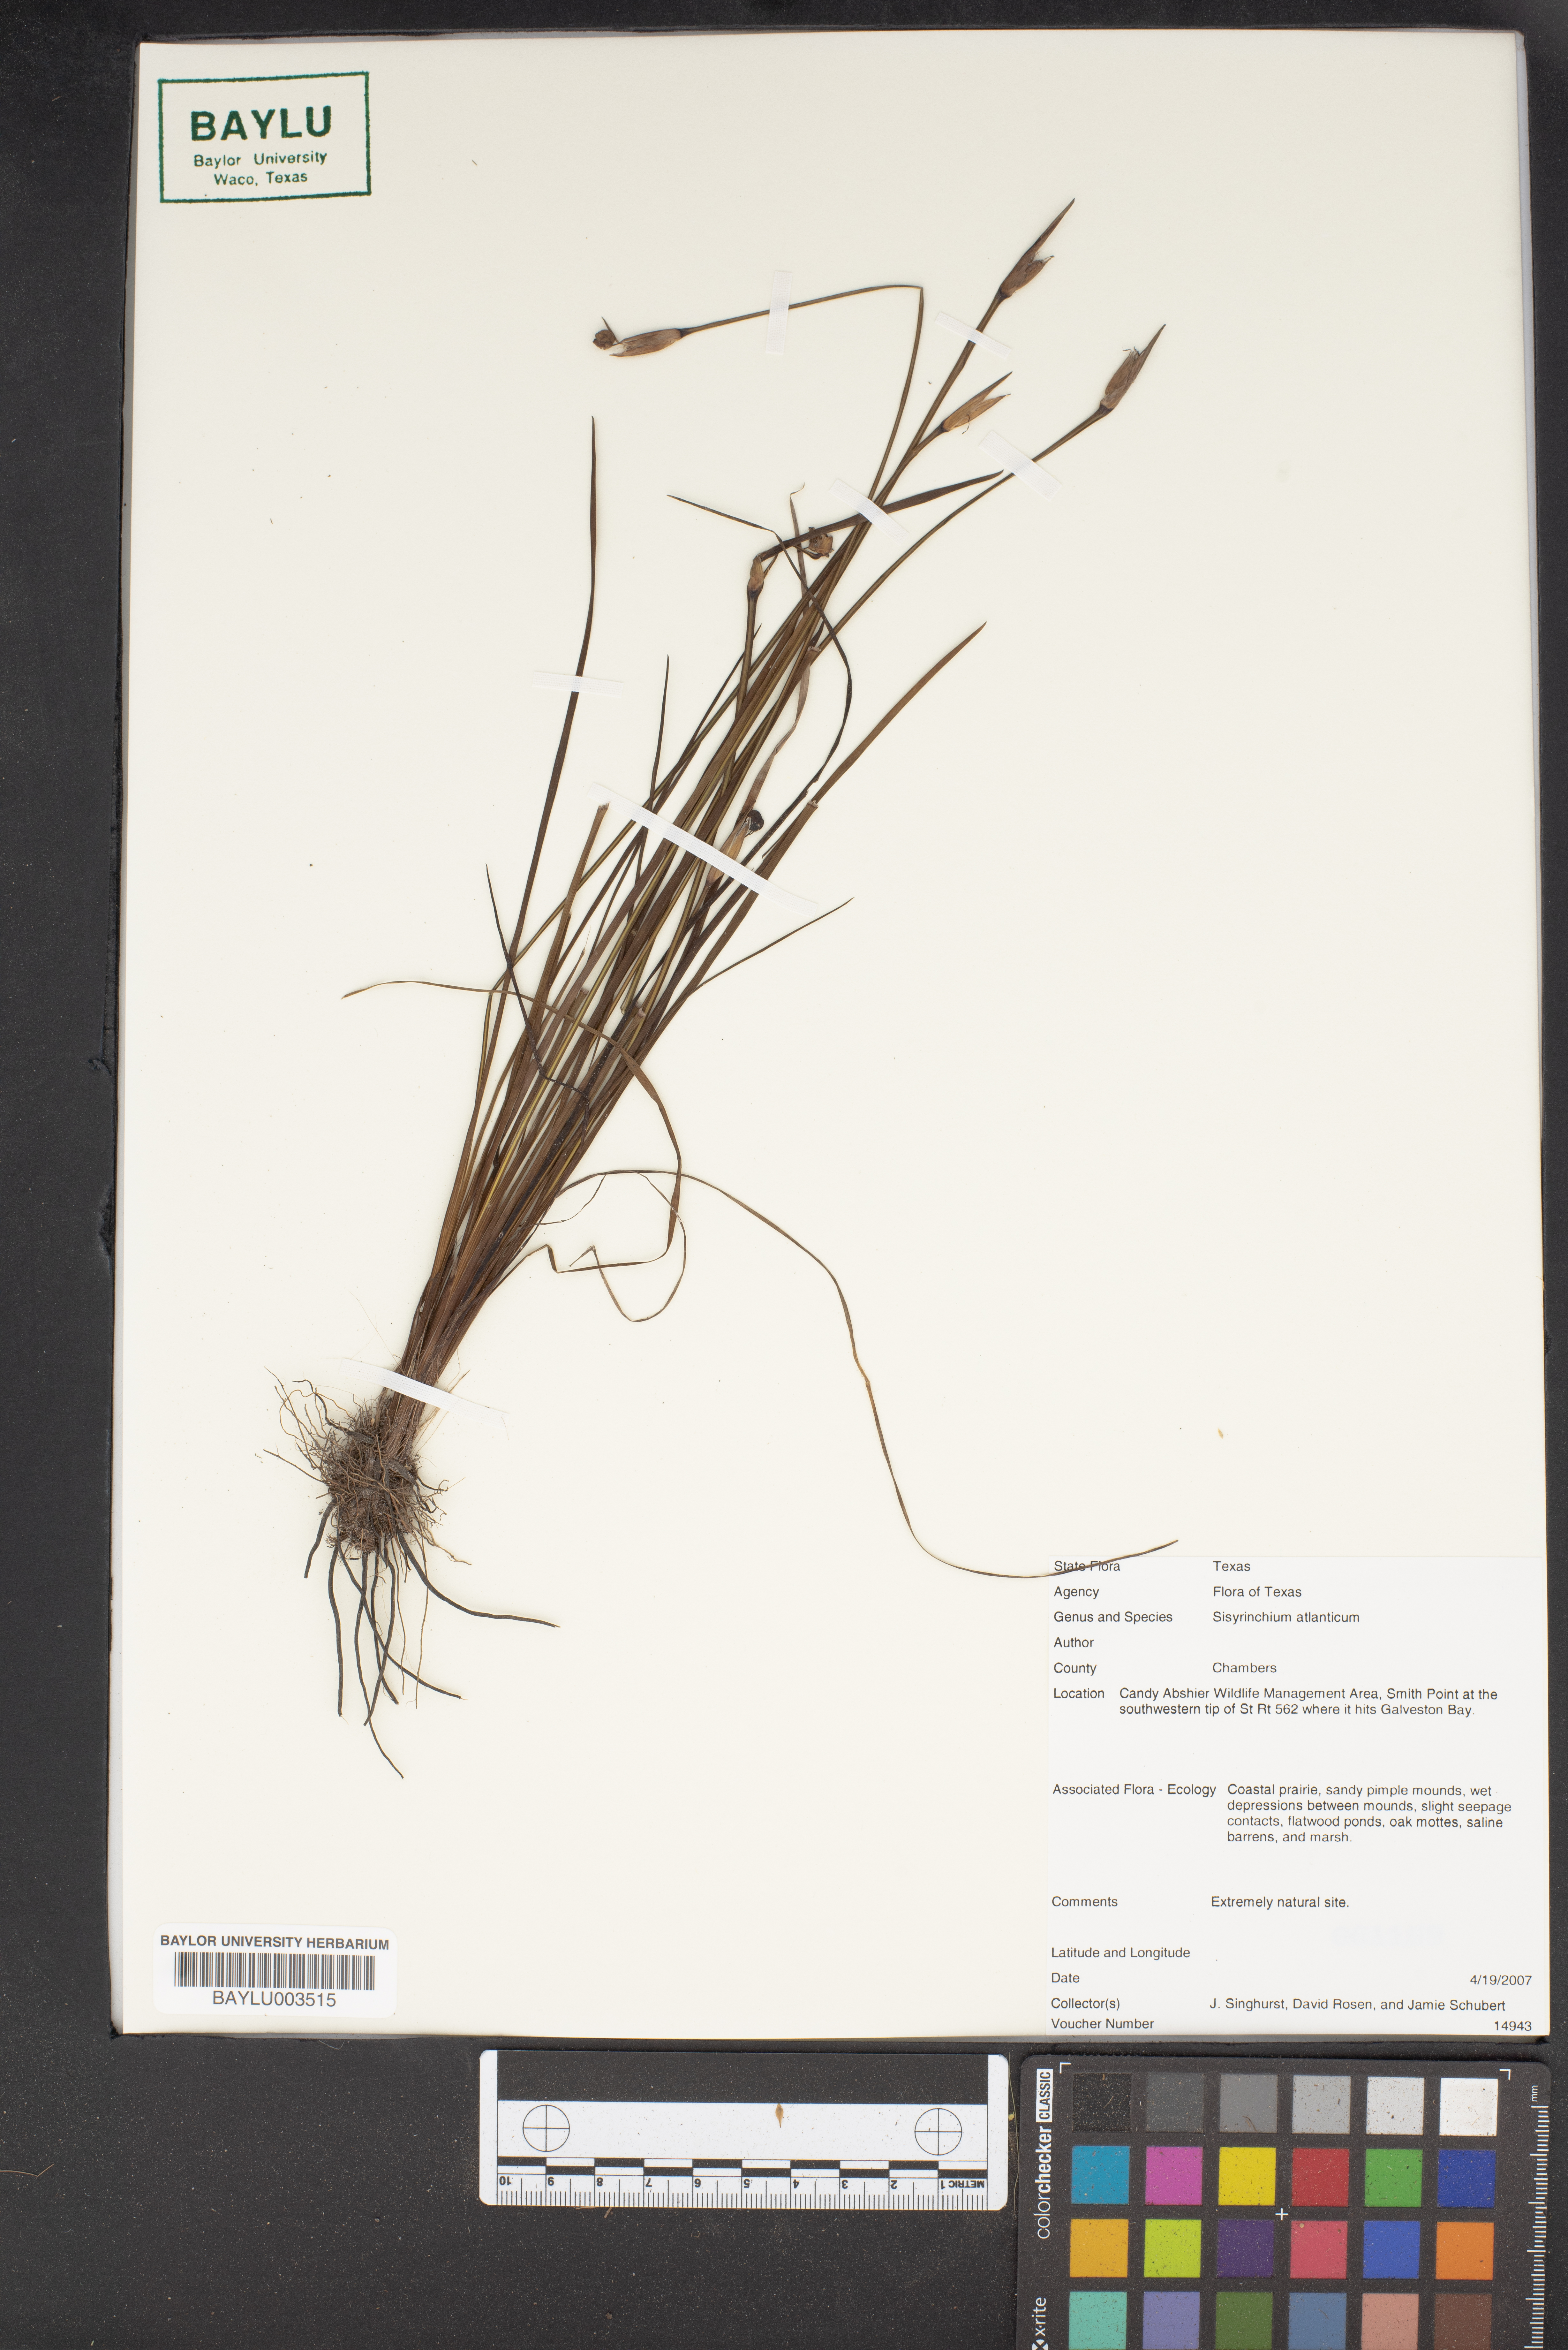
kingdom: Plantae
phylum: Tracheophyta
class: Liliopsida
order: Asparagales
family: Iridaceae
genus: Sisyrinchium
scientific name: Sisyrinchium atlanticum
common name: Eastern blue-eyed-grass
